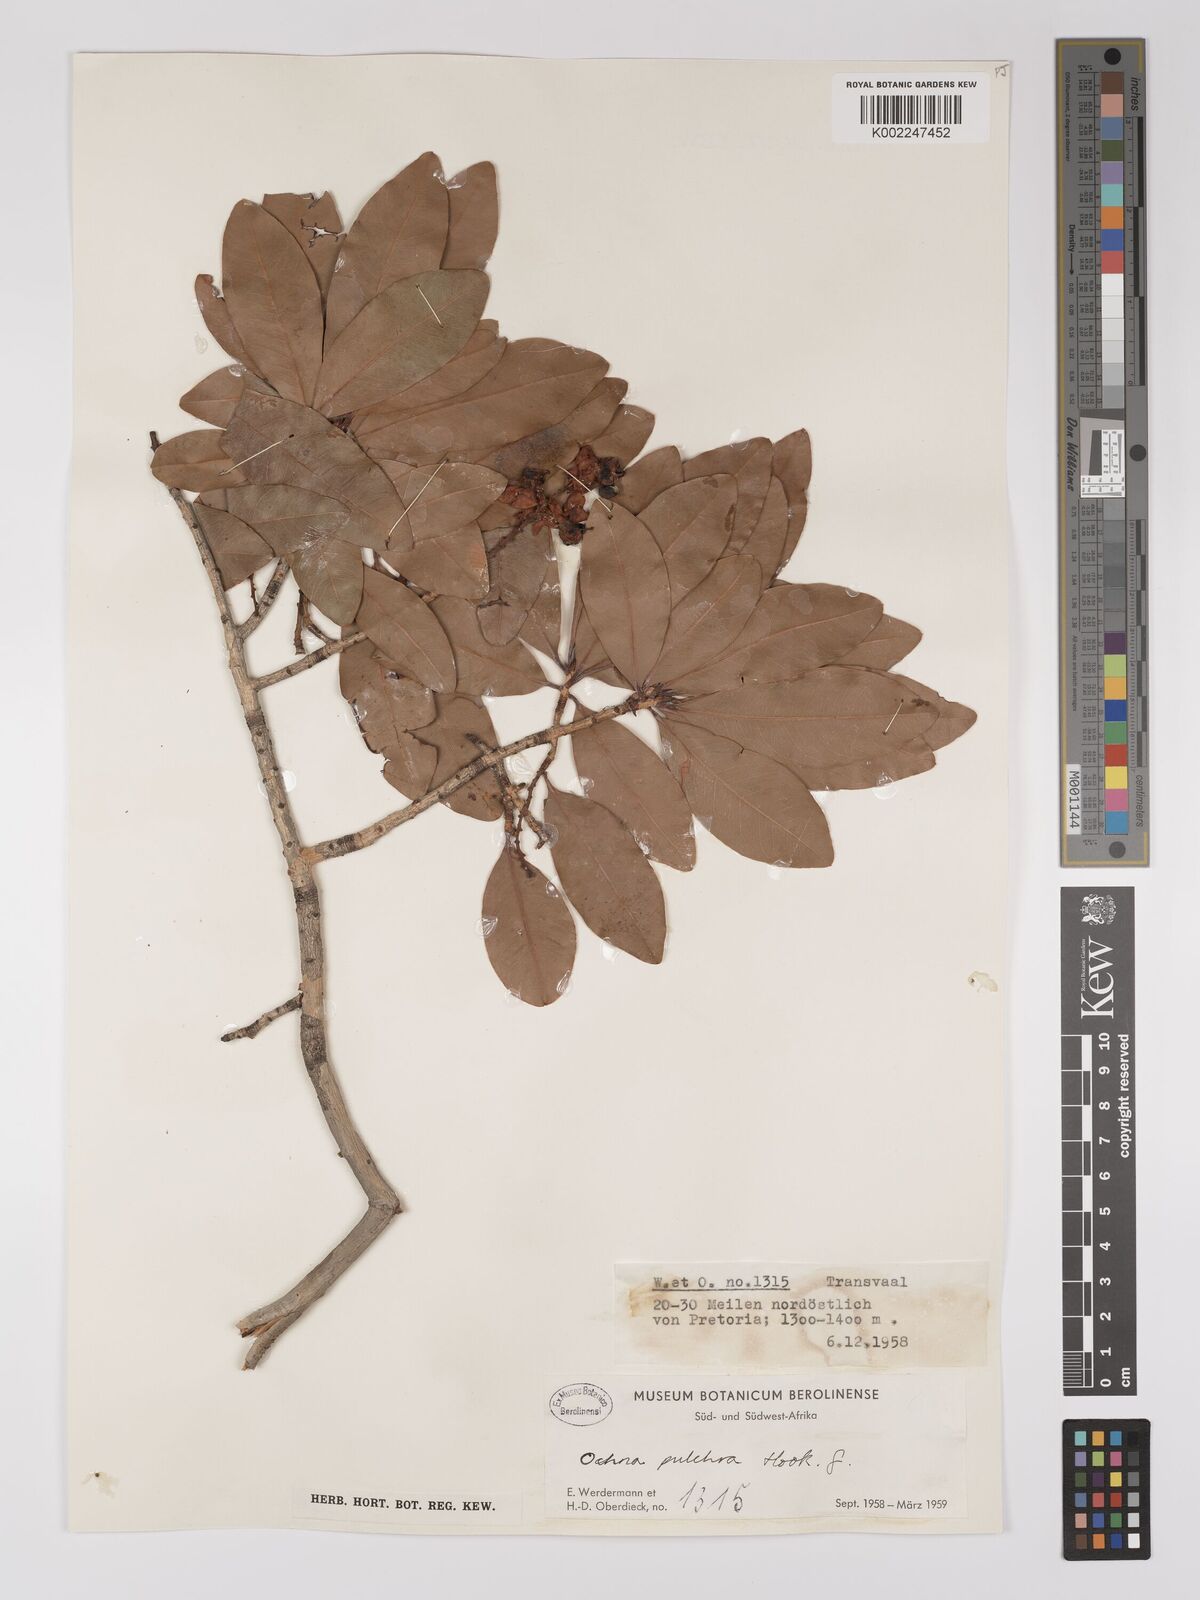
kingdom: Plantae
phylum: Tracheophyta
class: Magnoliopsida
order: Malpighiales
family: Ochnaceae
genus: Ochna
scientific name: Ochna pulchra
